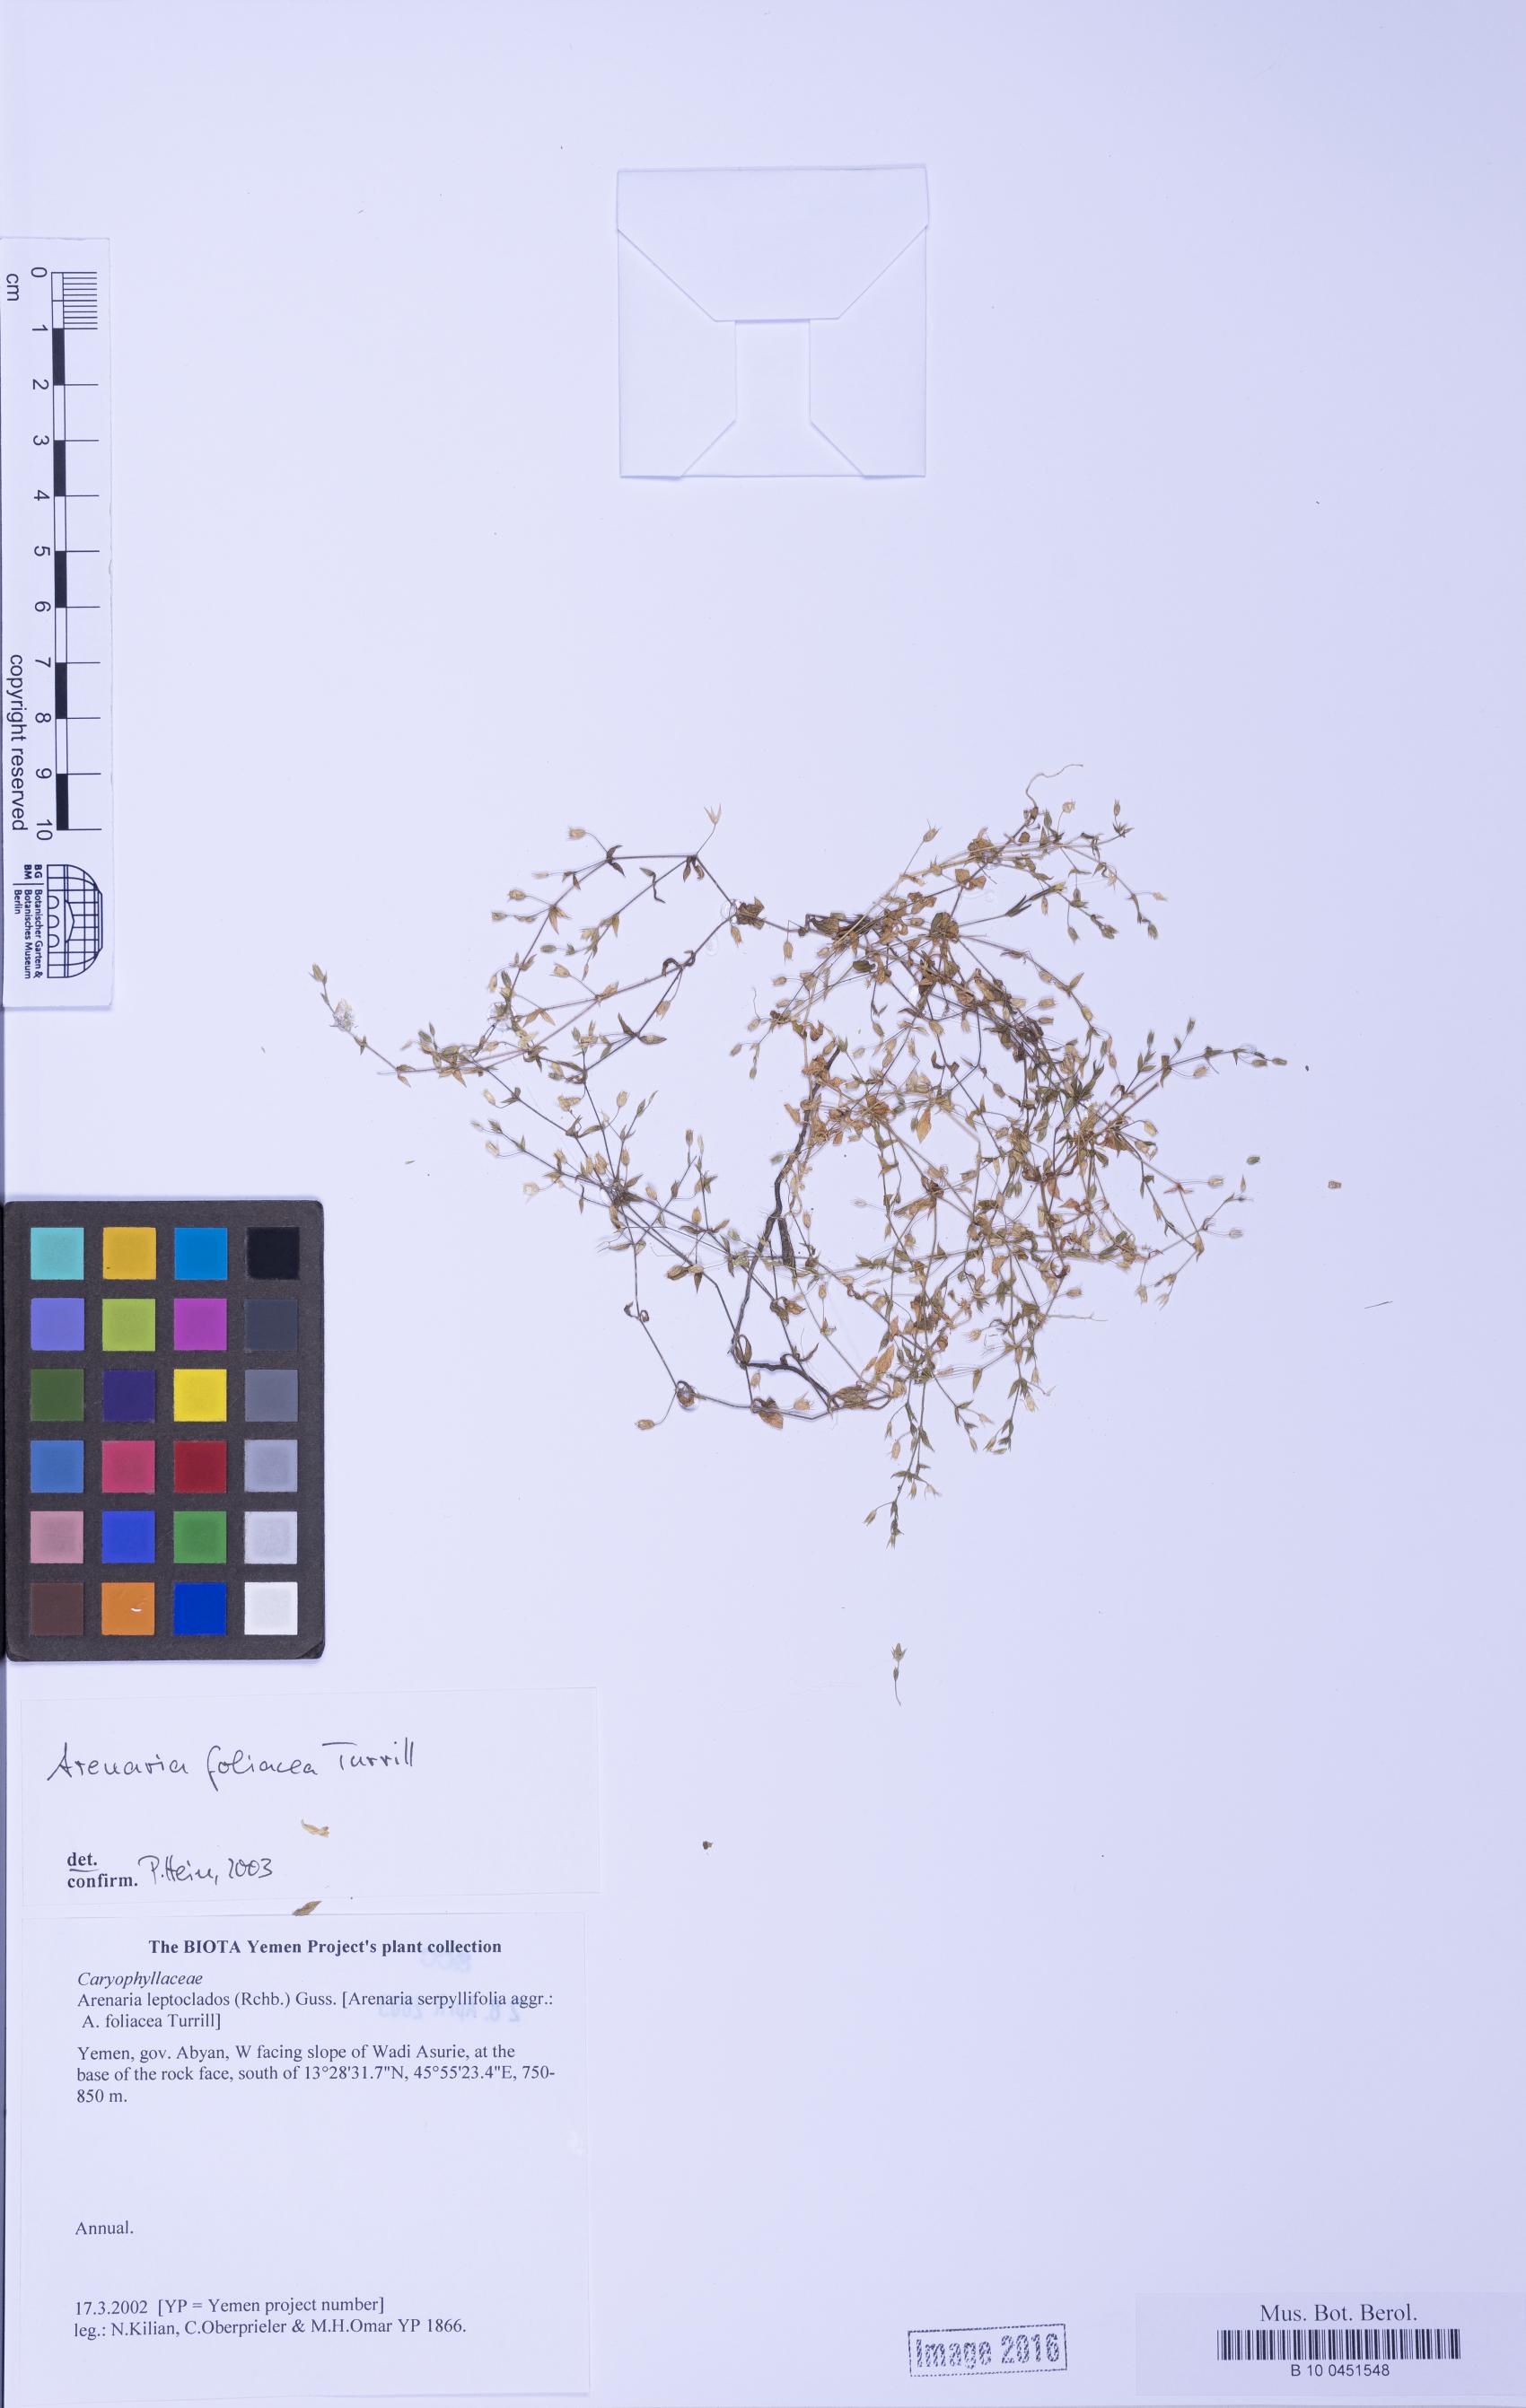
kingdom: Plantae
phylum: Tracheophyta
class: Magnoliopsida
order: Caryophyllales
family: Caryophyllaceae
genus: Arenaria
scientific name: Arenaria leptoclados
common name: Thyme-leaved sandwort
